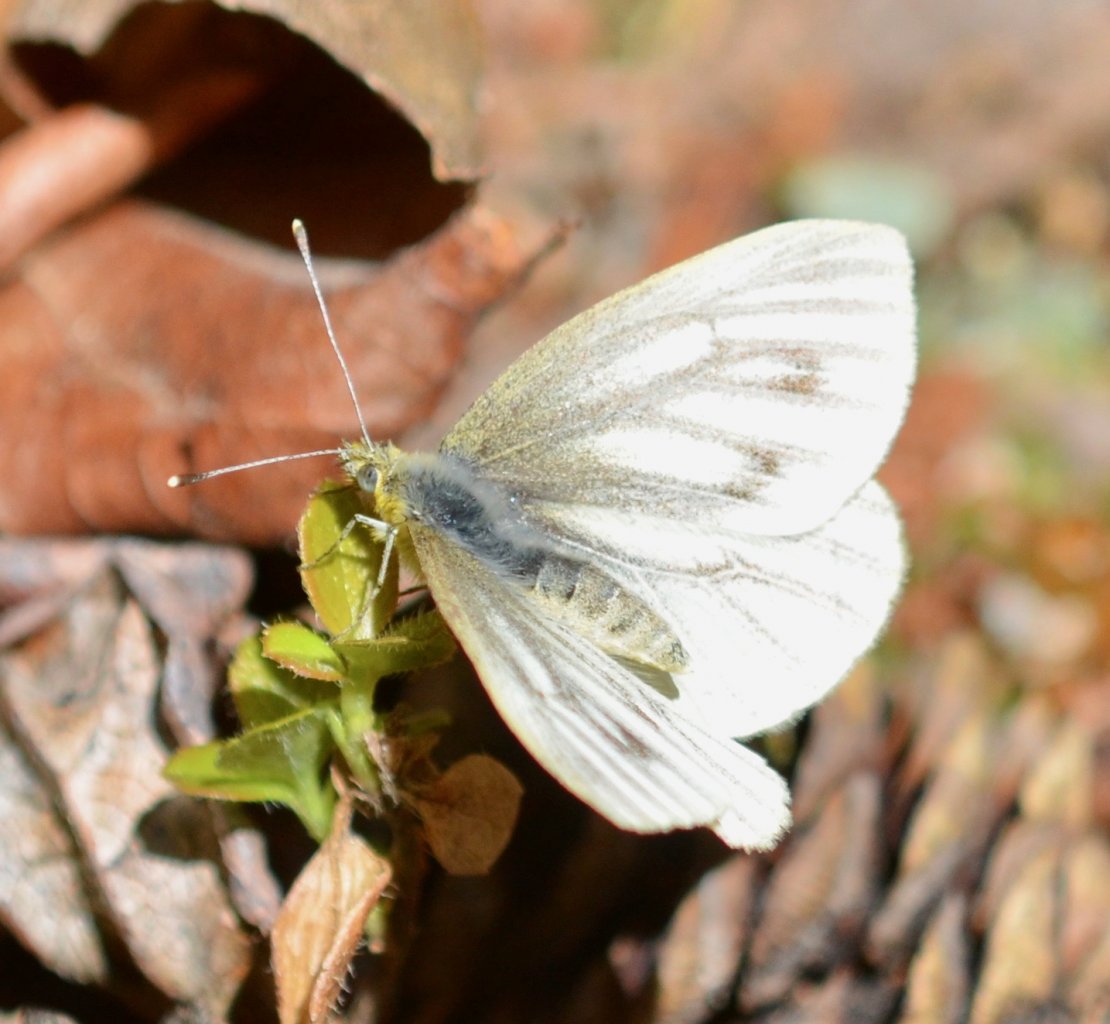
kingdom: Animalia
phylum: Arthropoda
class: Insecta
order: Lepidoptera
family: Pieridae
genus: Pieris
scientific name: Pieris marginalis
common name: Margined White
